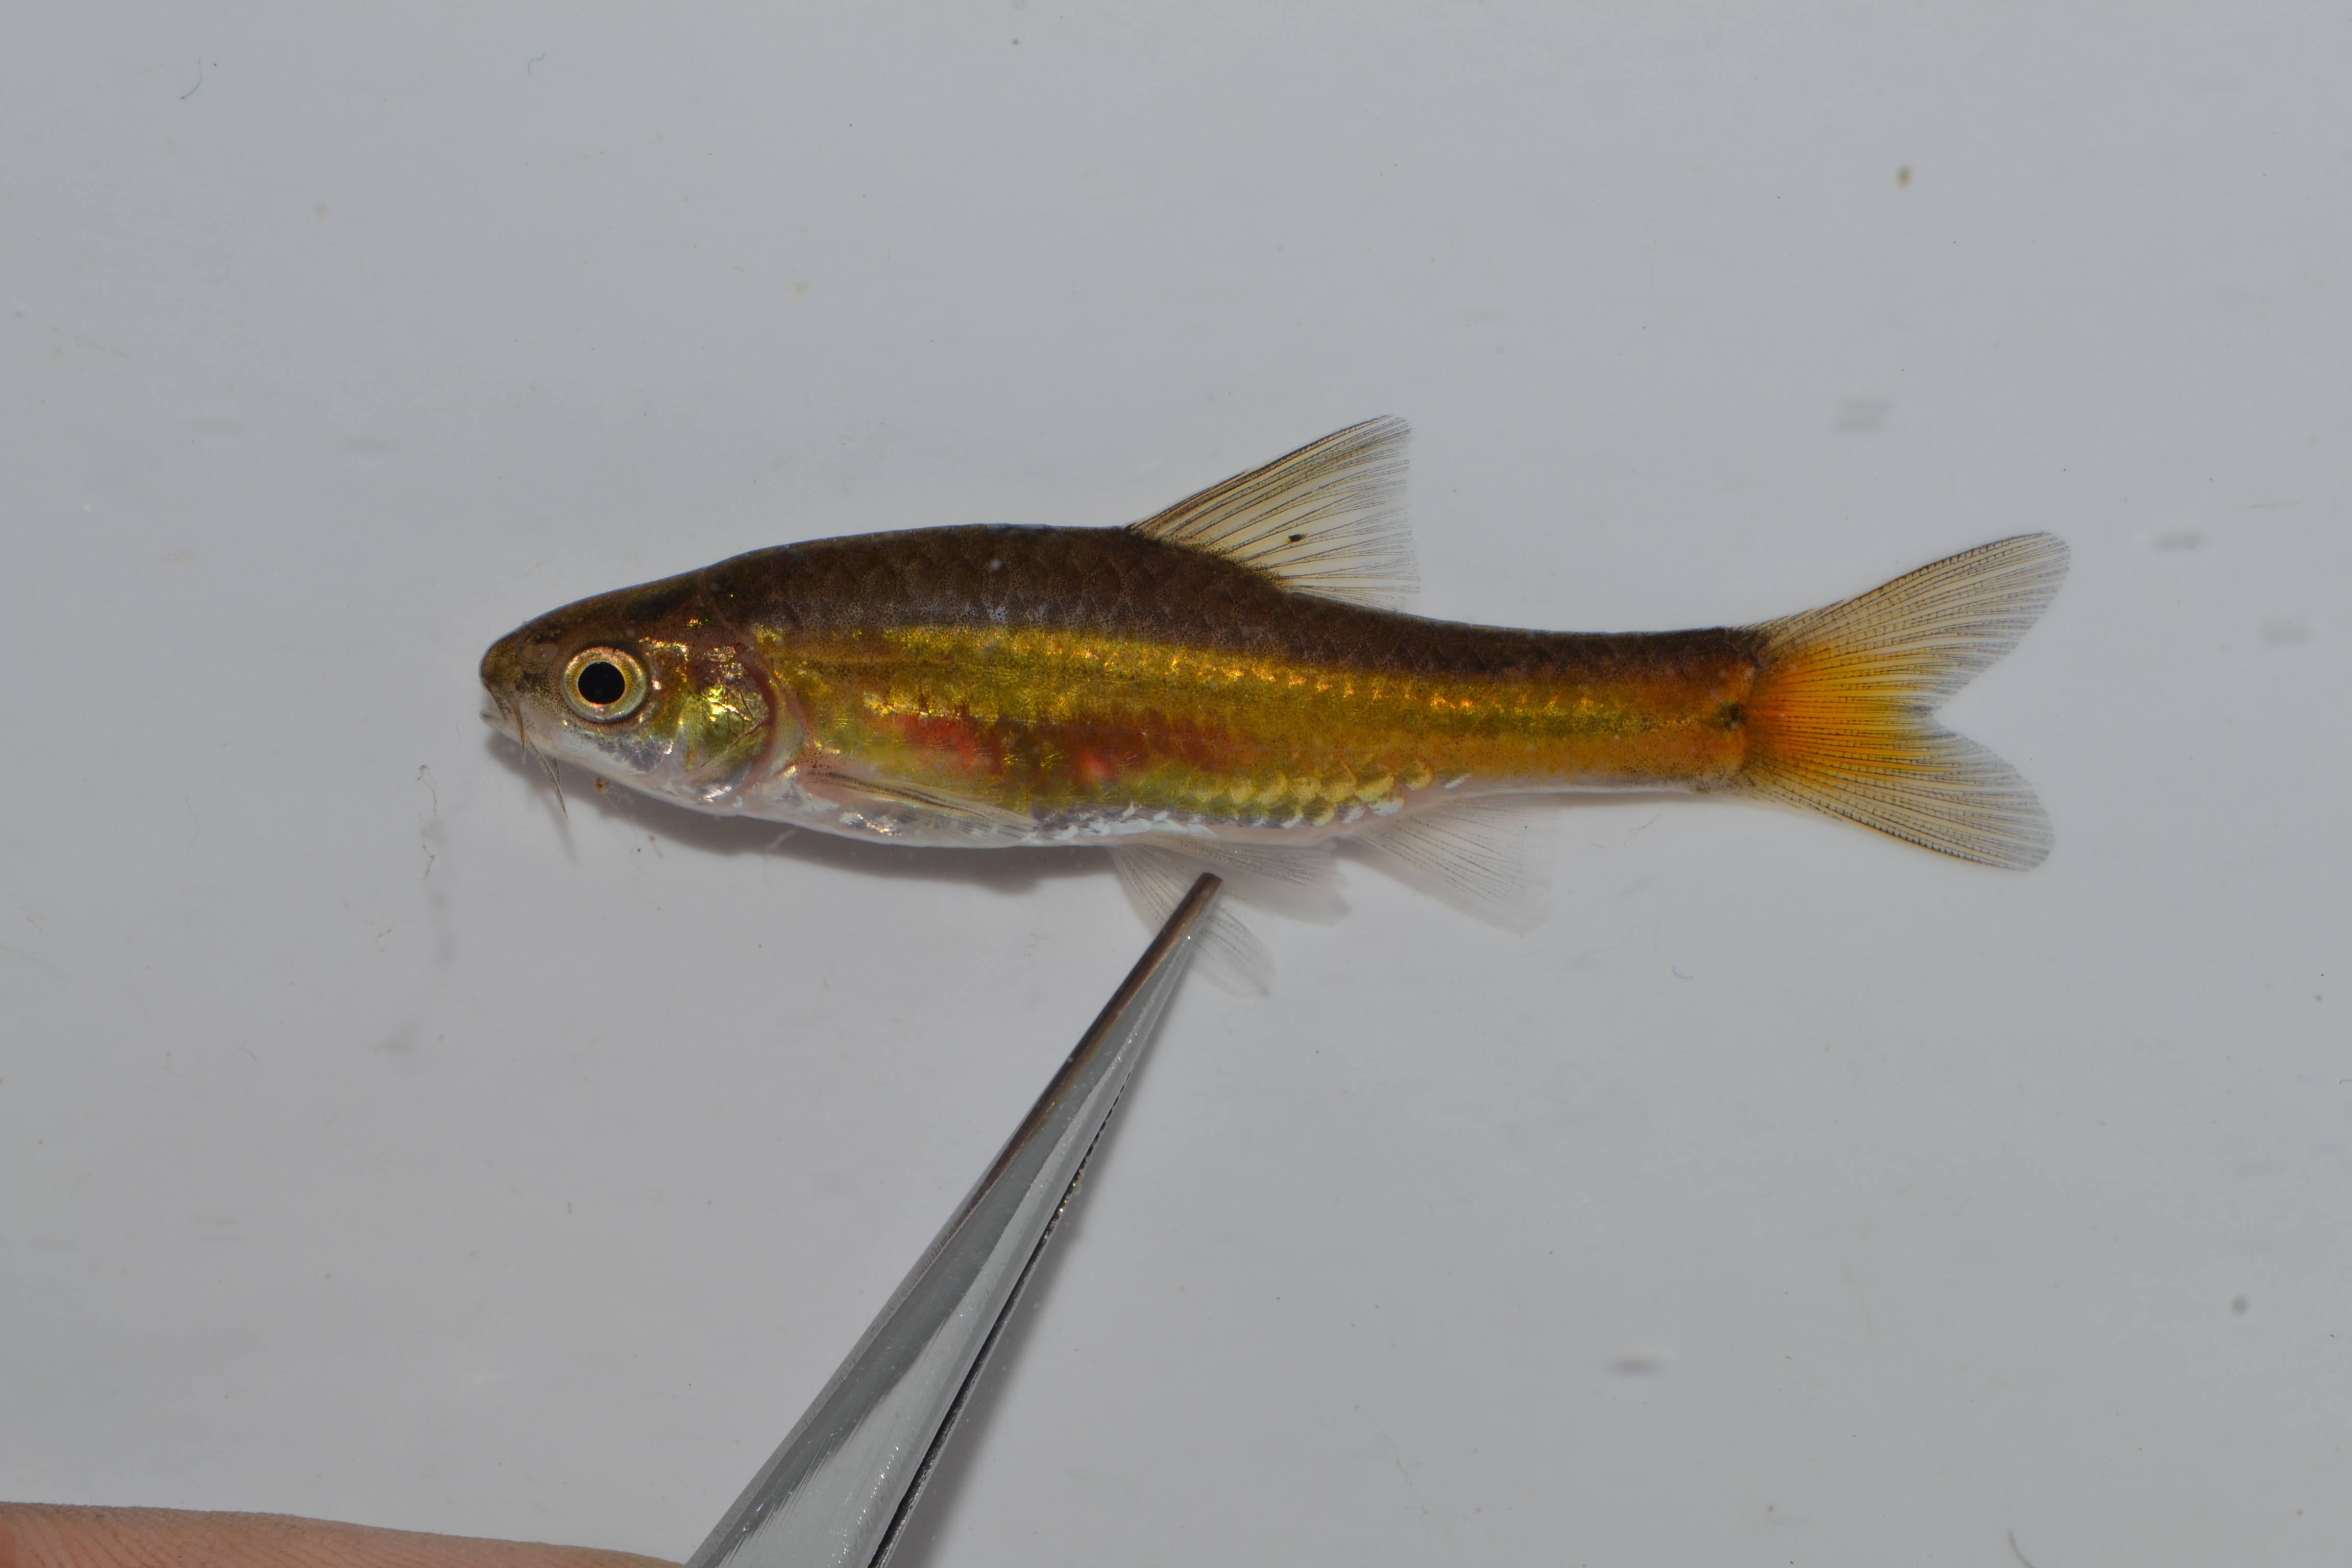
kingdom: Animalia
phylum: Chordata
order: Cypriniformes
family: Cyprinidae
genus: Enteromius
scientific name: Enteromius viviparus
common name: Bowstripe barb
